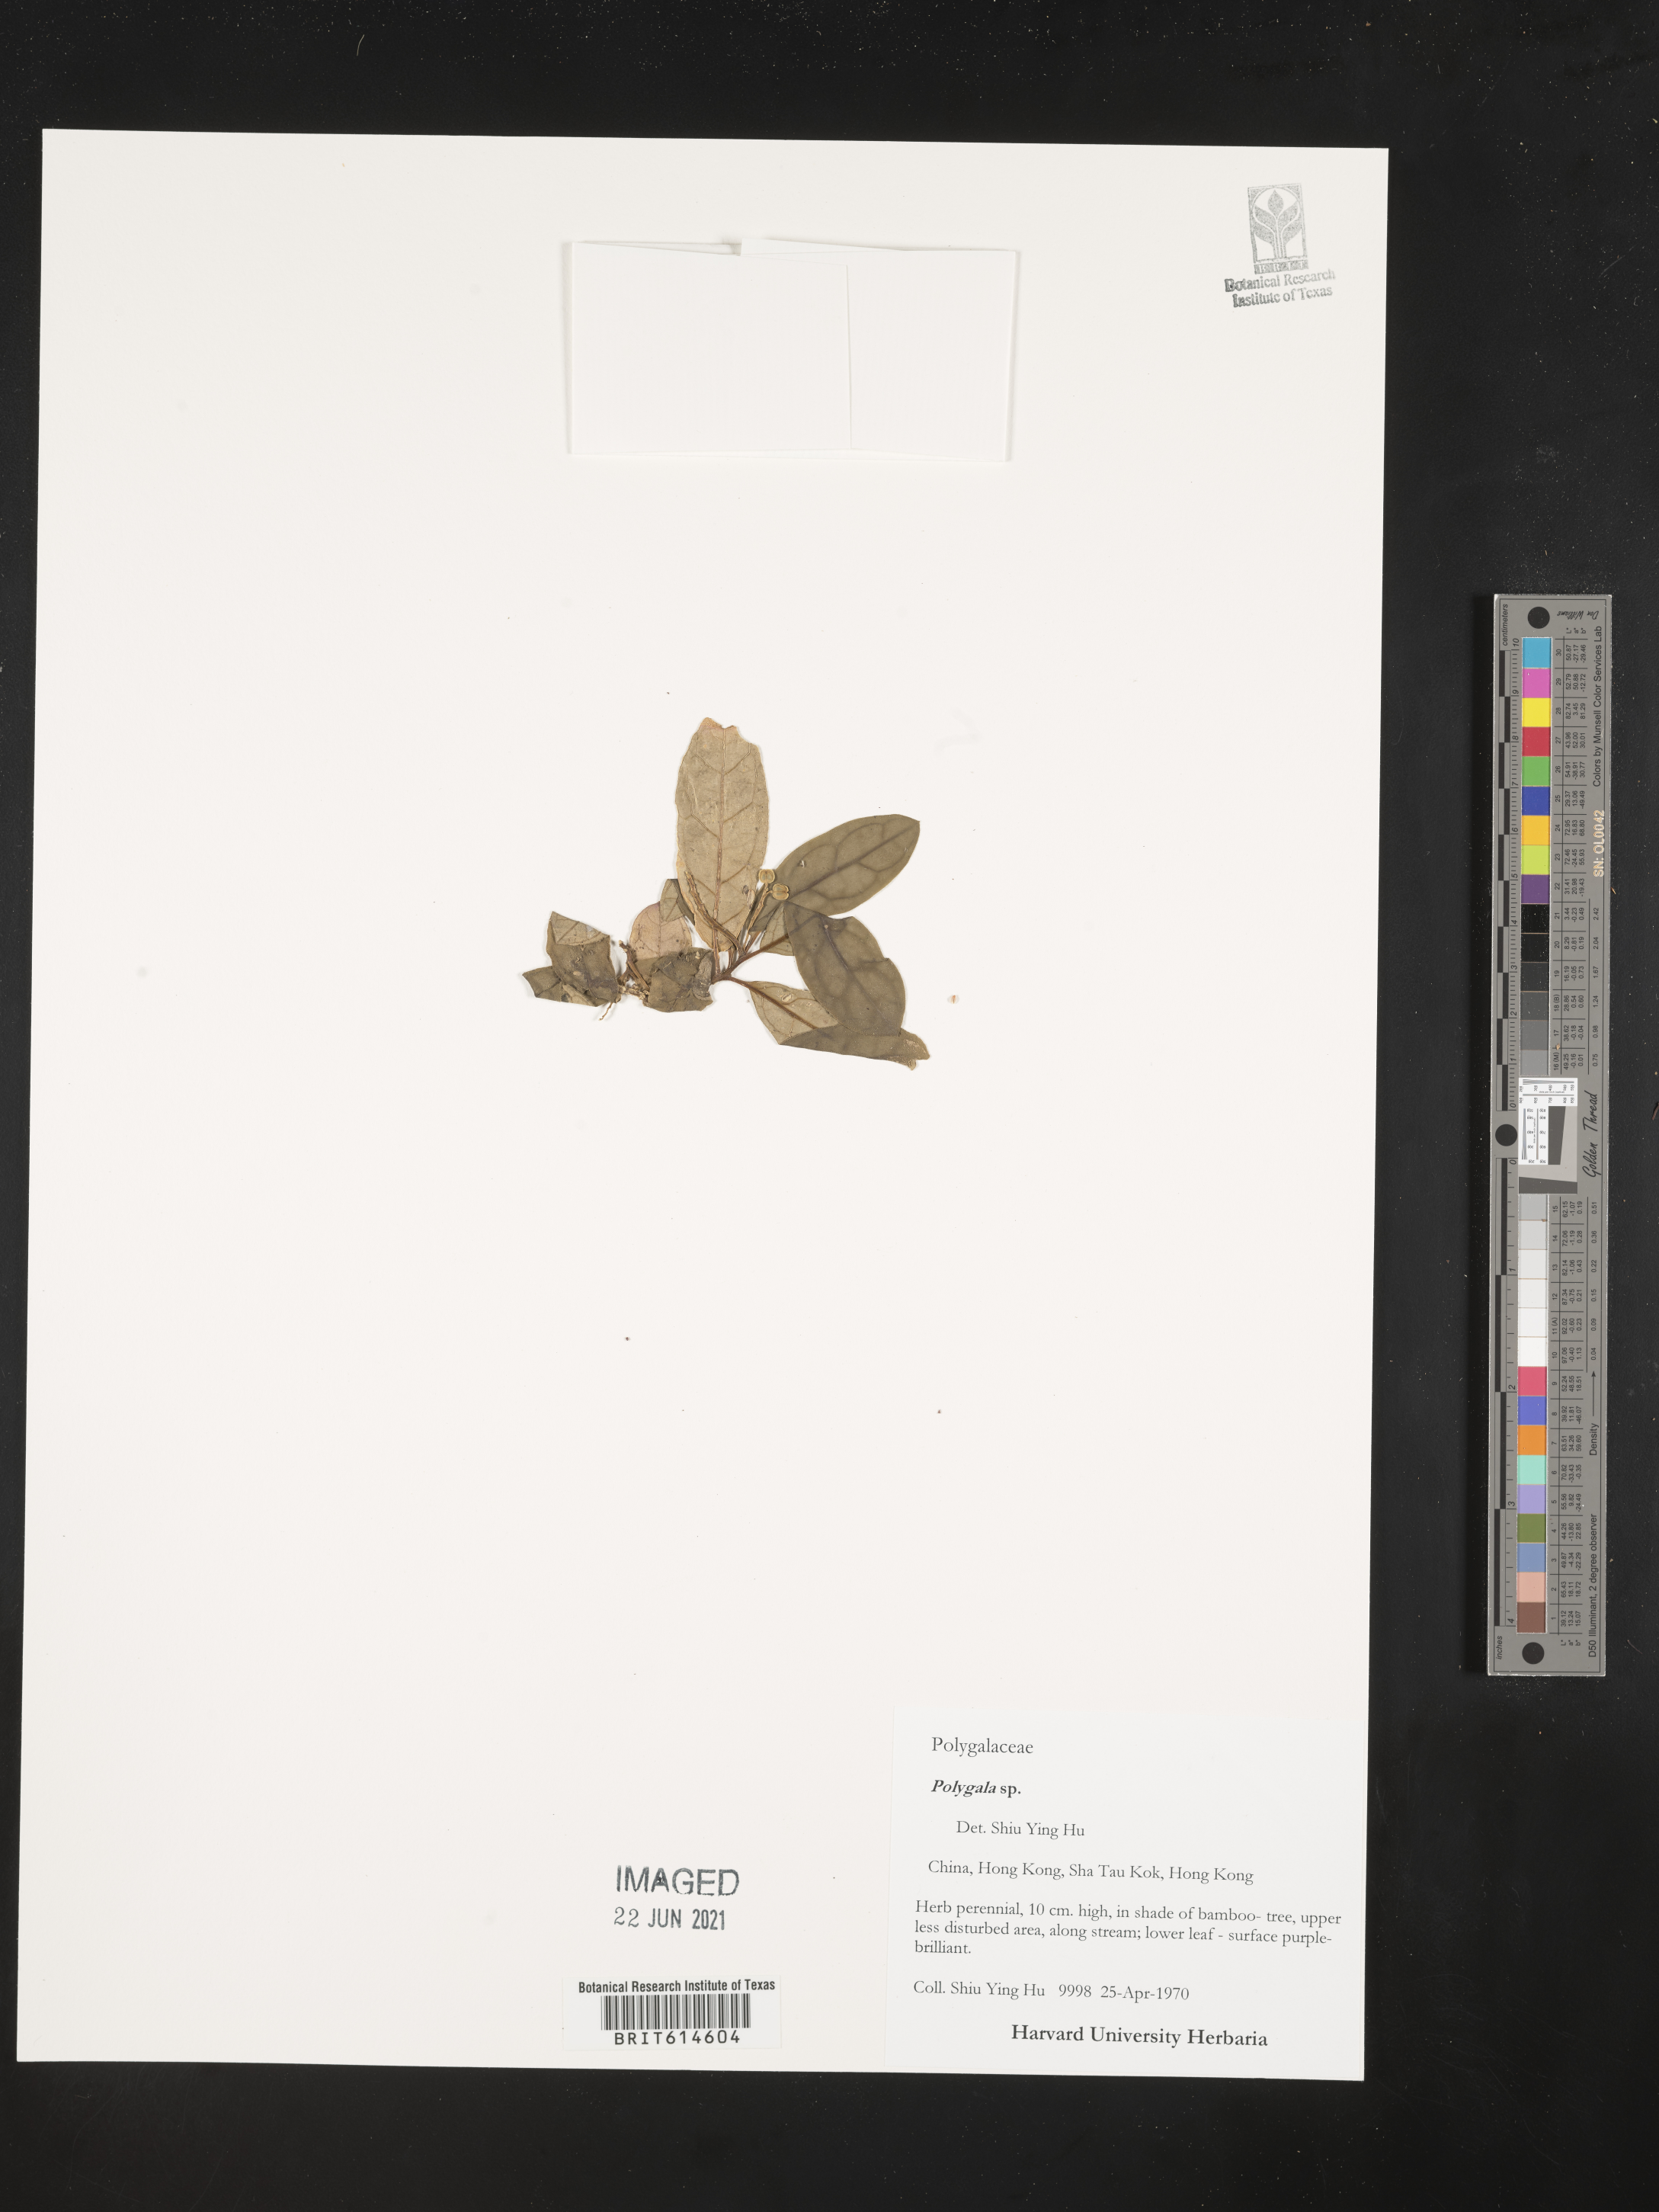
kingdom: Plantae
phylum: Tracheophyta
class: Magnoliopsida
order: Fabales
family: Polygalaceae
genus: Polygala
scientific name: Polygala
